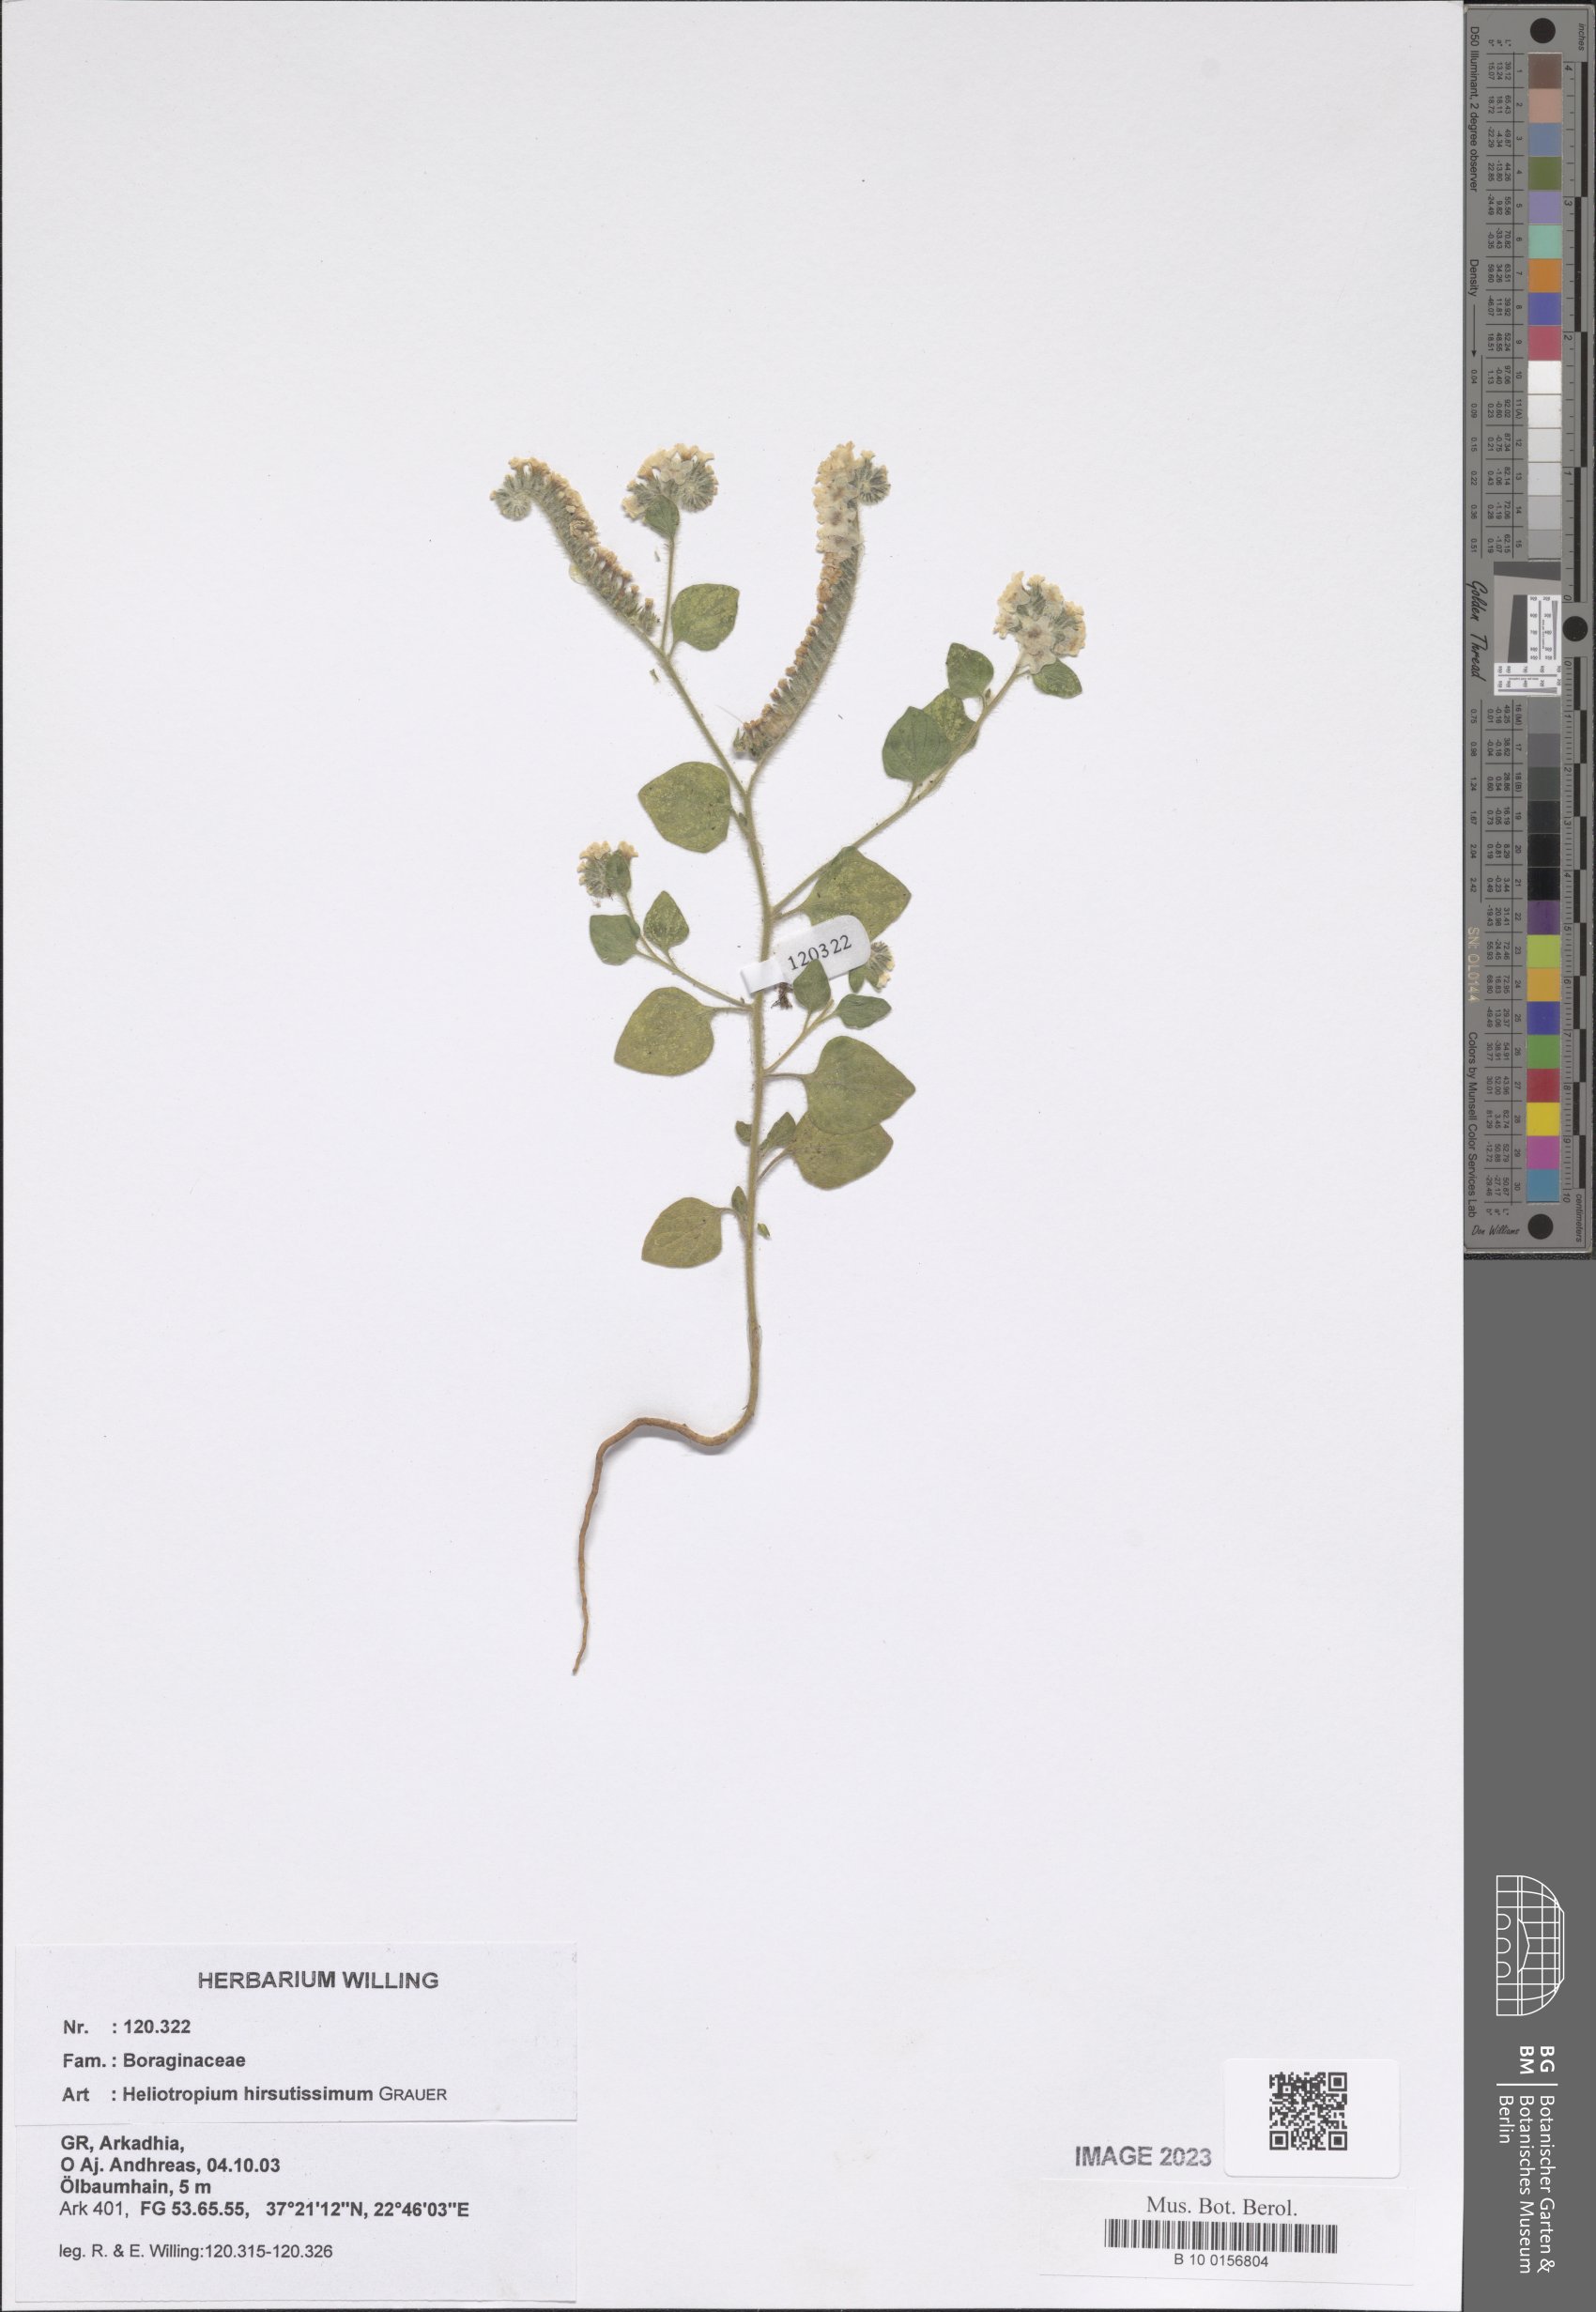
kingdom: Plantae
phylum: Tracheophyta
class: Magnoliopsida
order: Boraginales
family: Heliotropiaceae
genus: Heliotropium
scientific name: Heliotropium hirsutissimum
